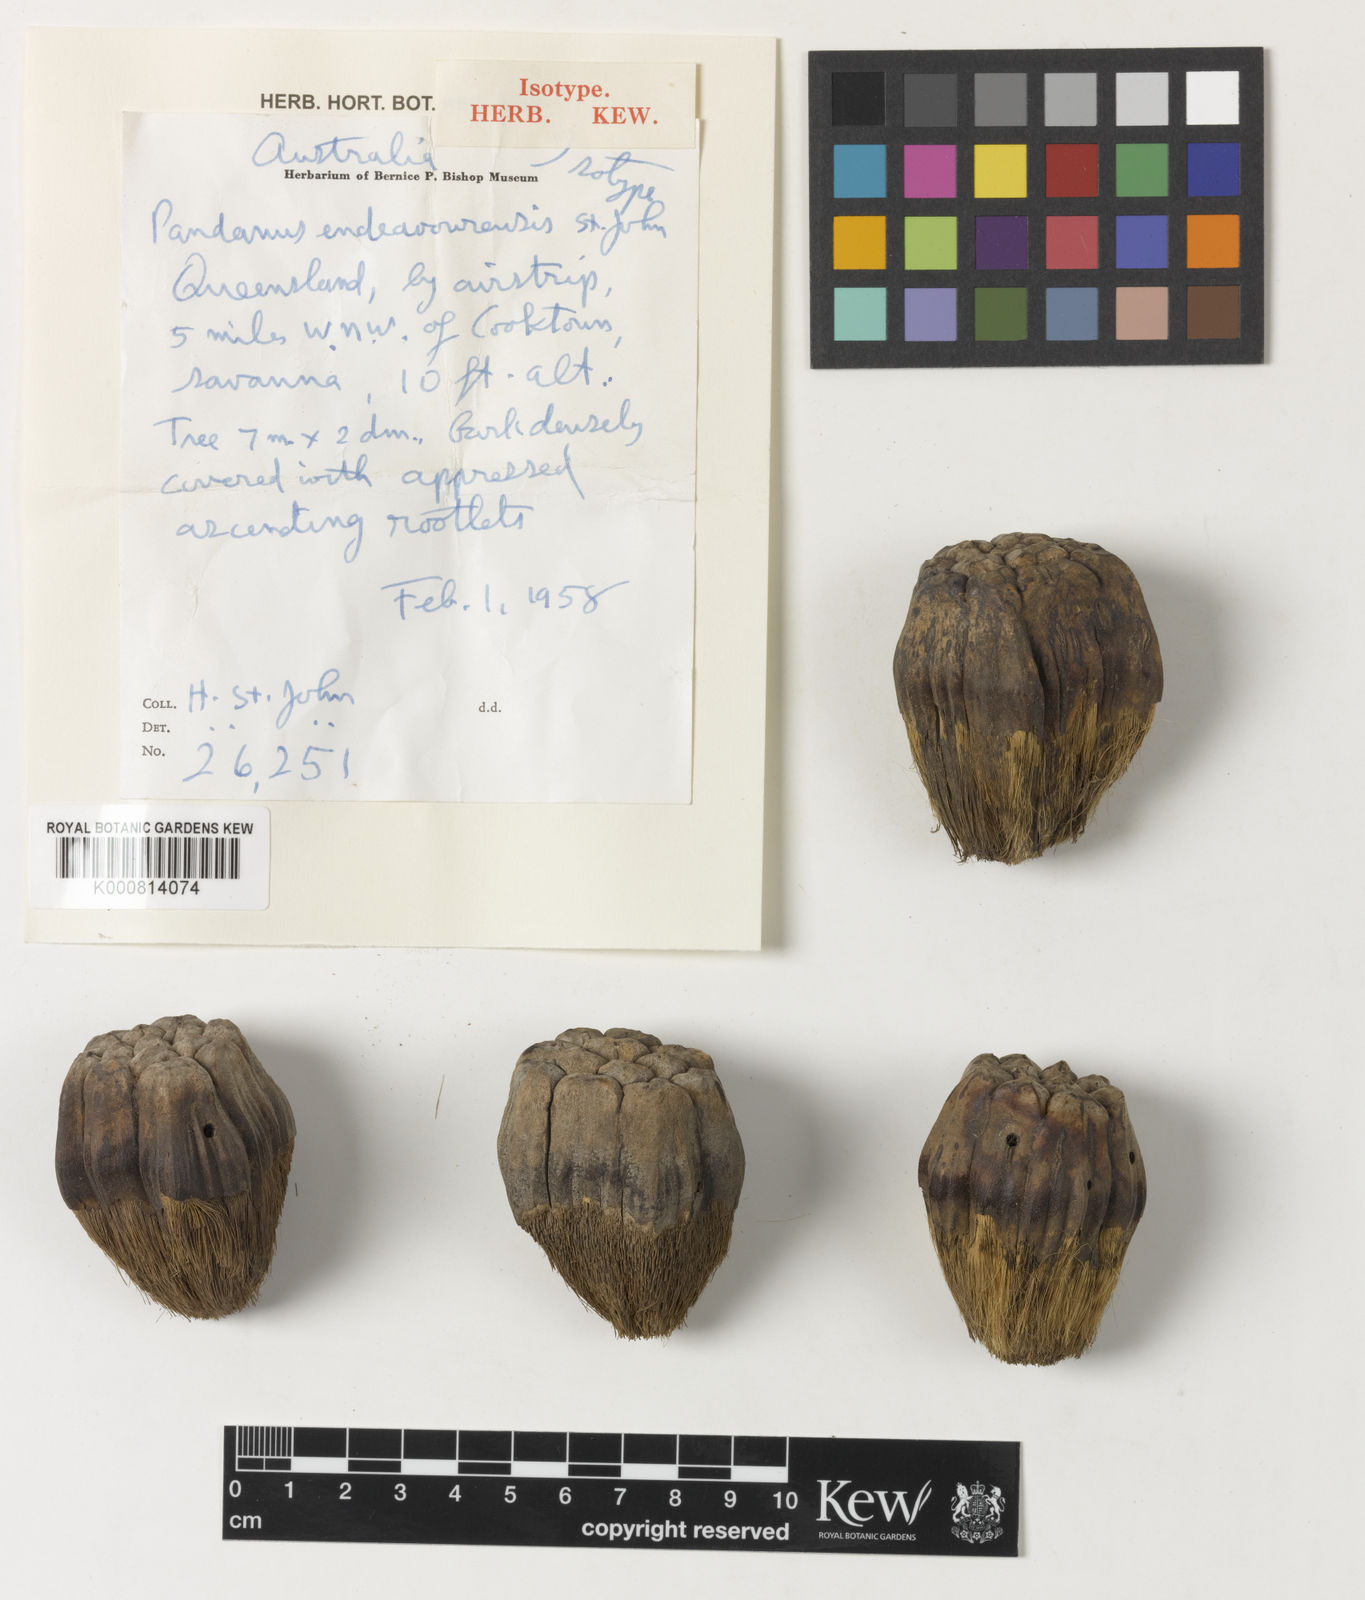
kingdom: Plantae
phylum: Tracheophyta
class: Liliopsida
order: Pandanales
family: Pandanaceae
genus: Pandanus
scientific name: Pandanus cookii
